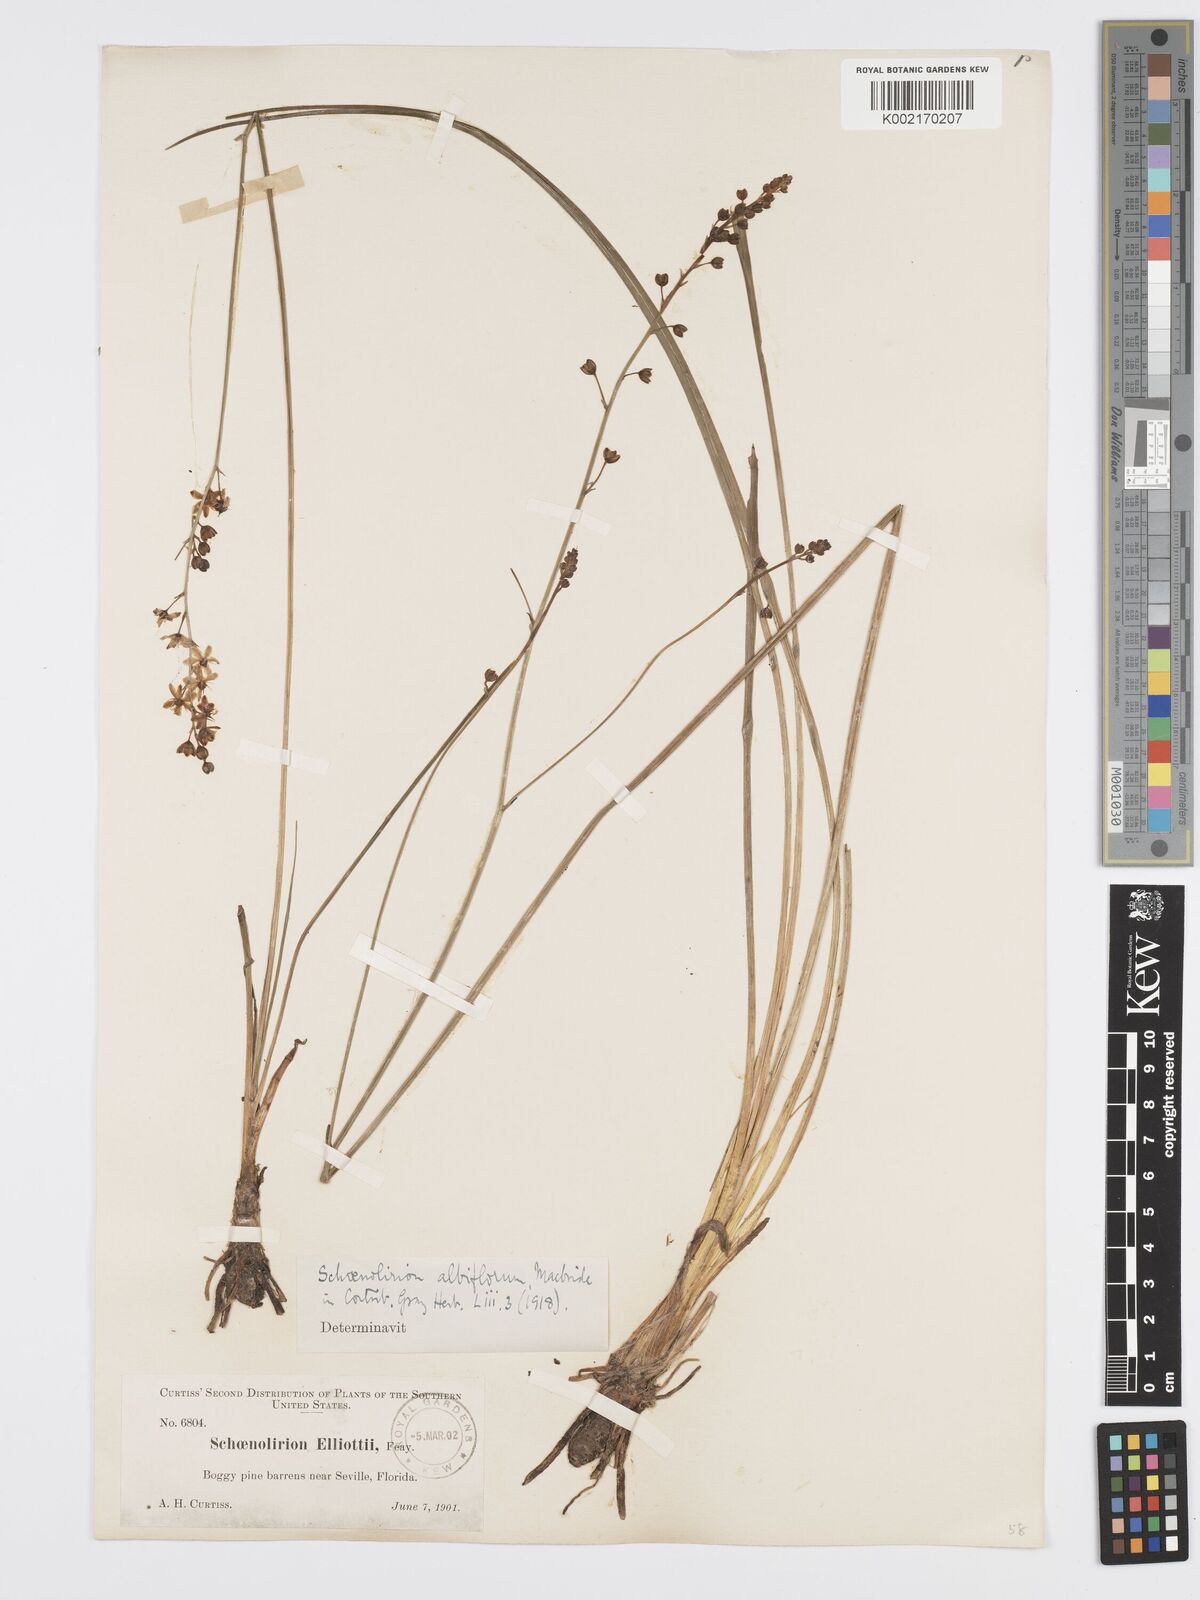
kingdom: Plantae
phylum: Tracheophyta
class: Liliopsida
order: Asparagales
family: Asparagaceae
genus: Schoenolirion
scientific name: Schoenolirion albiflorum
